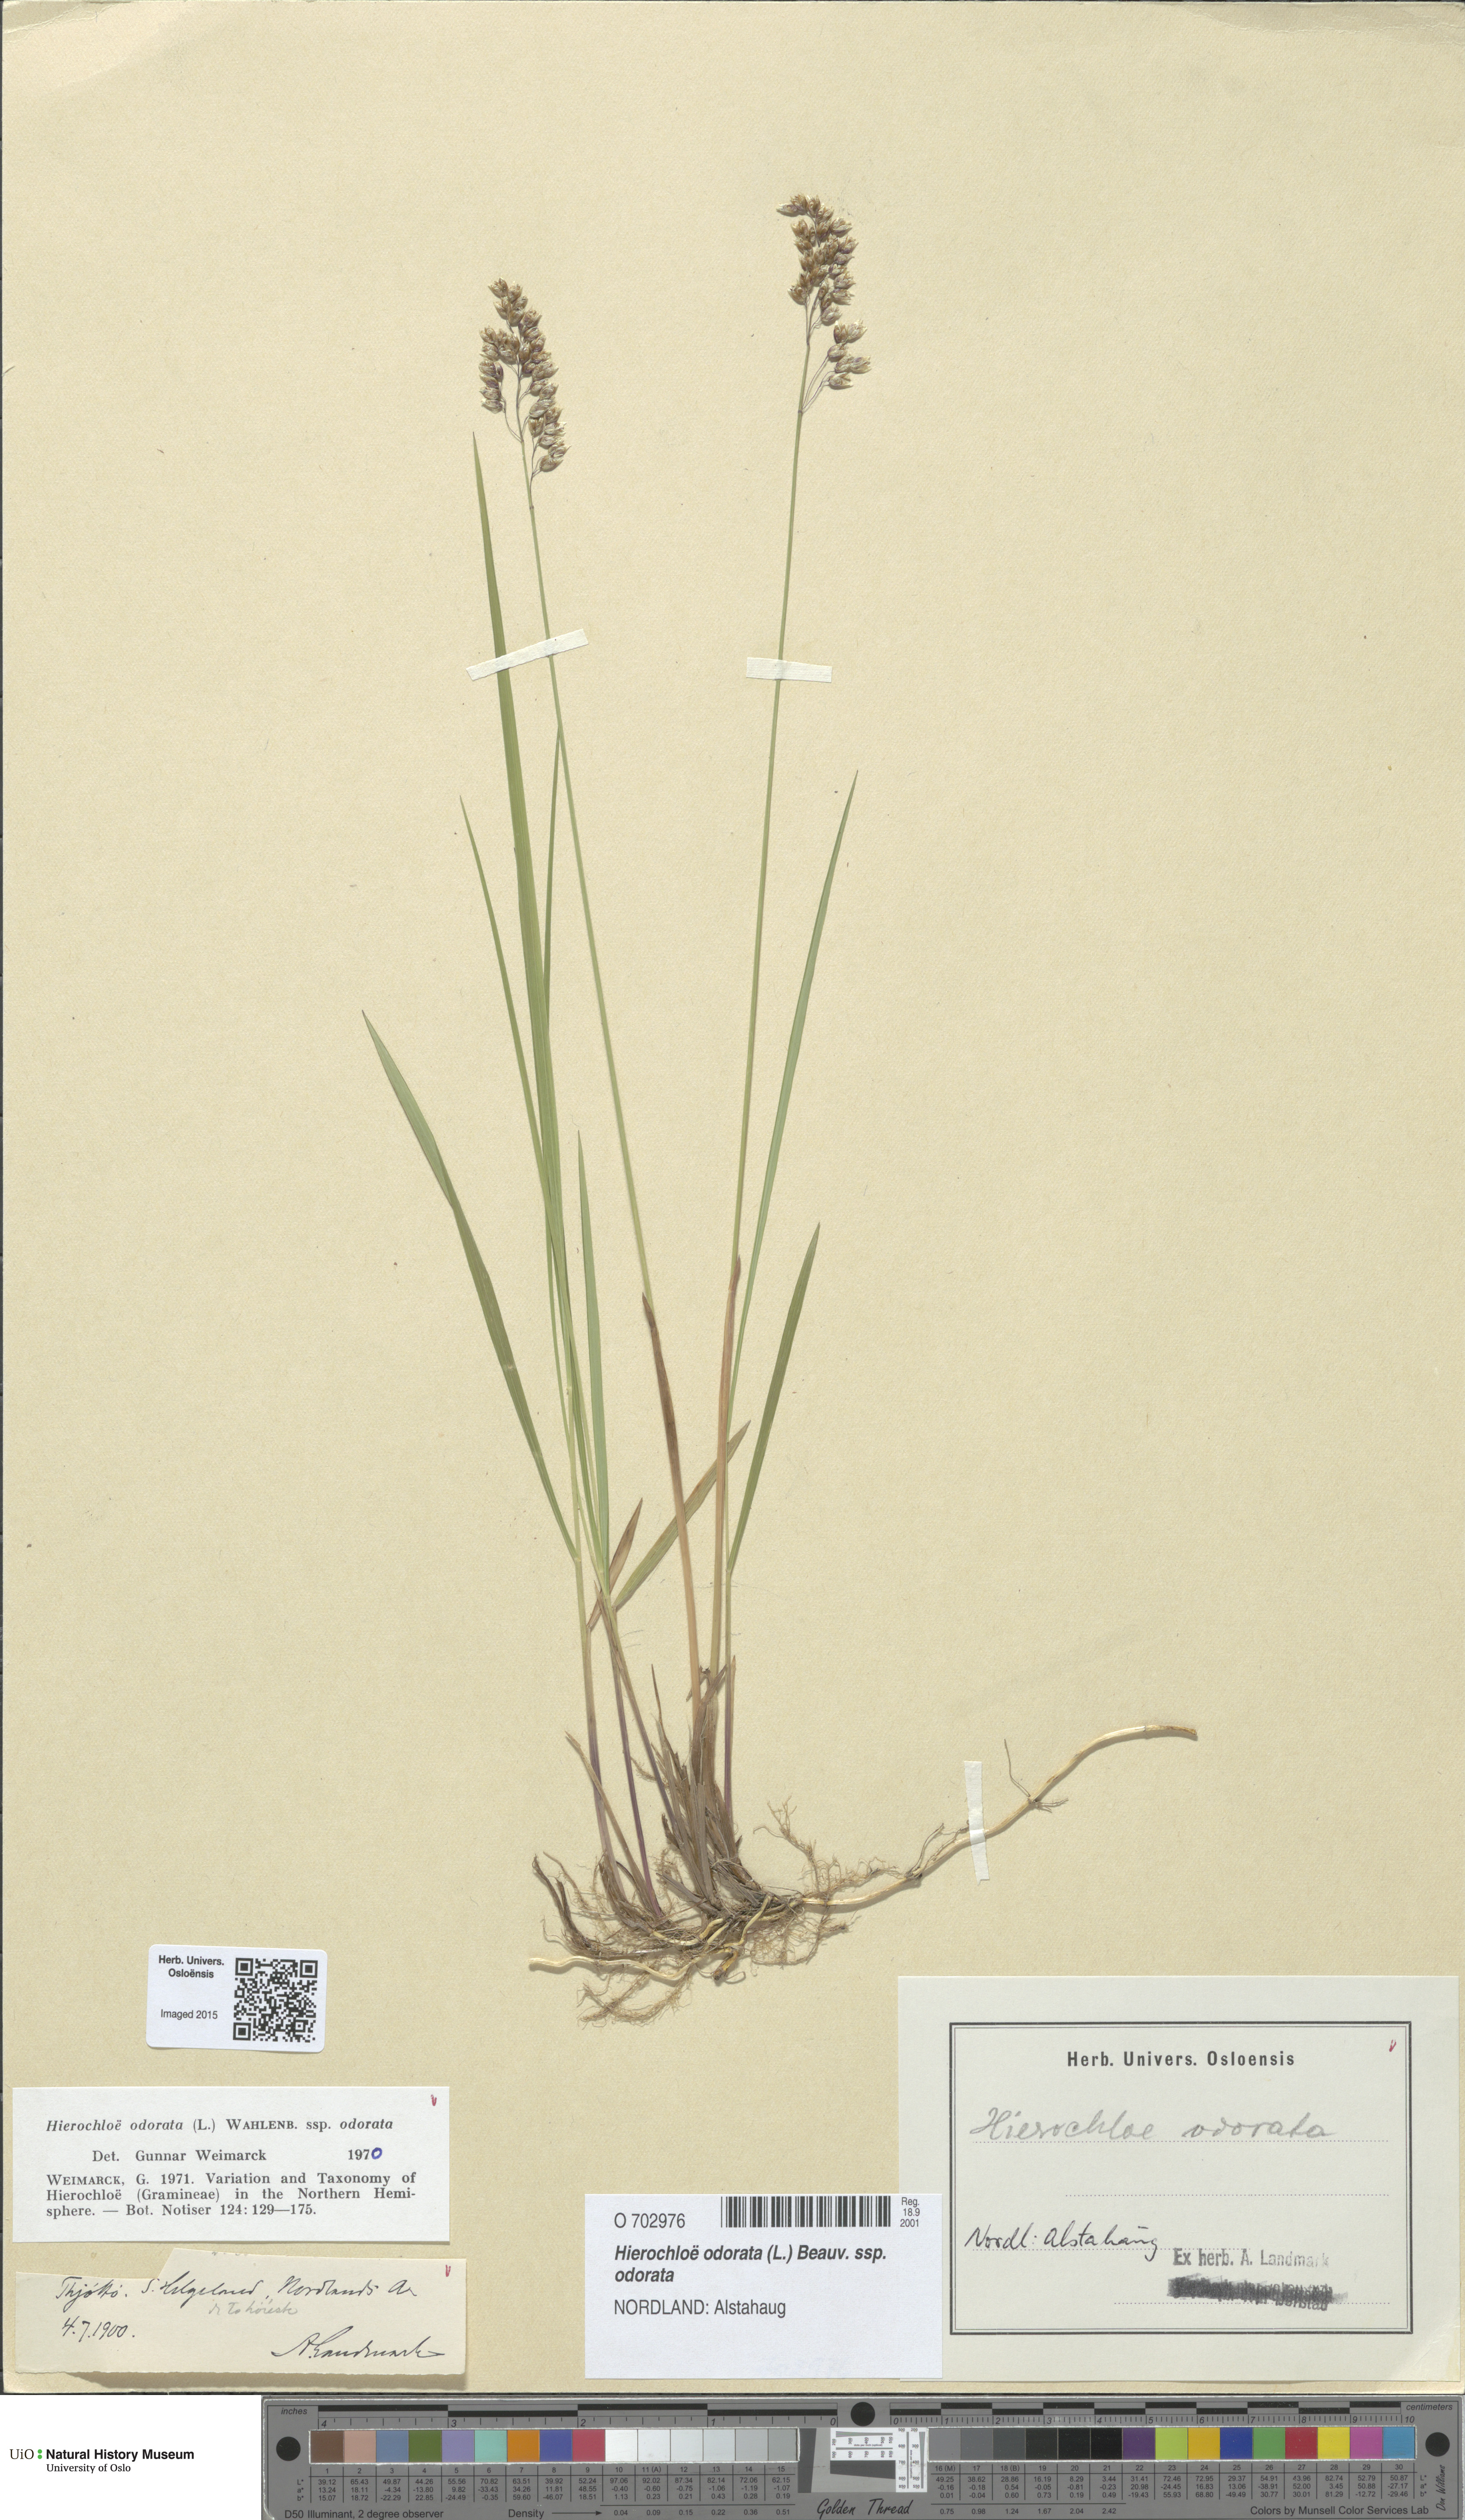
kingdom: Plantae
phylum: Tracheophyta
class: Liliopsida
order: Poales
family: Poaceae
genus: Anthoxanthum
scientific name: Anthoxanthum nitens
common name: Holy grass
